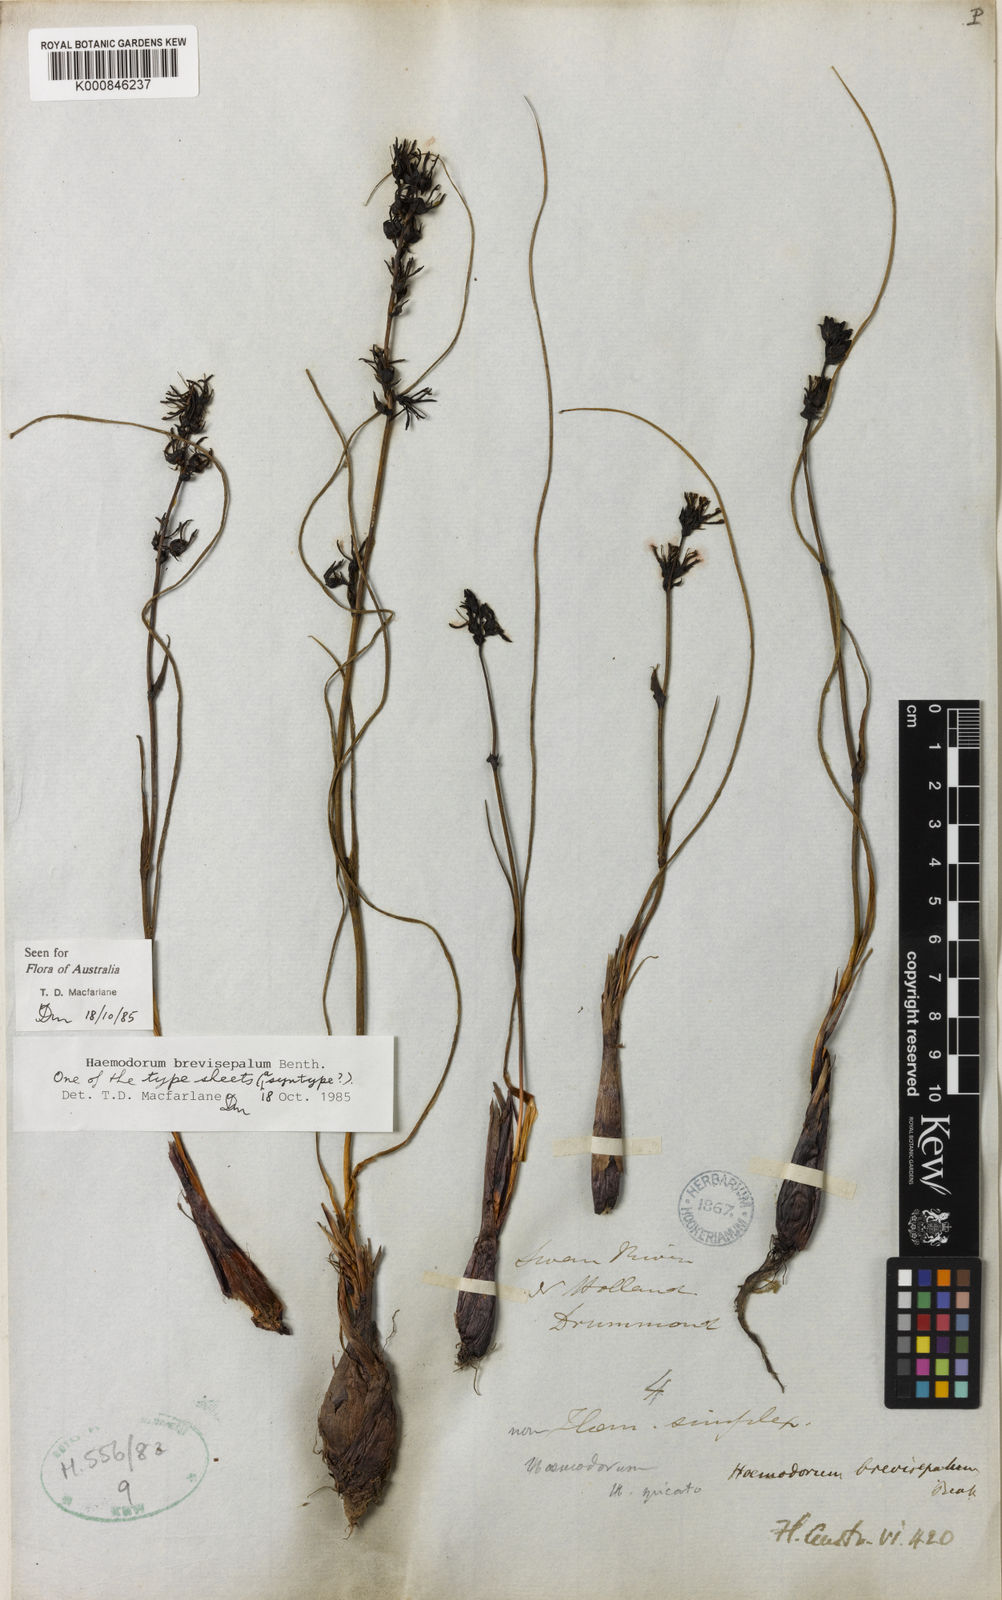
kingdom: Plantae
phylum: Tracheophyta
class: Liliopsida
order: Commelinales
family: Haemodoraceae
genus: Haemodorum
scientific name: Haemodorum brevisepalum
